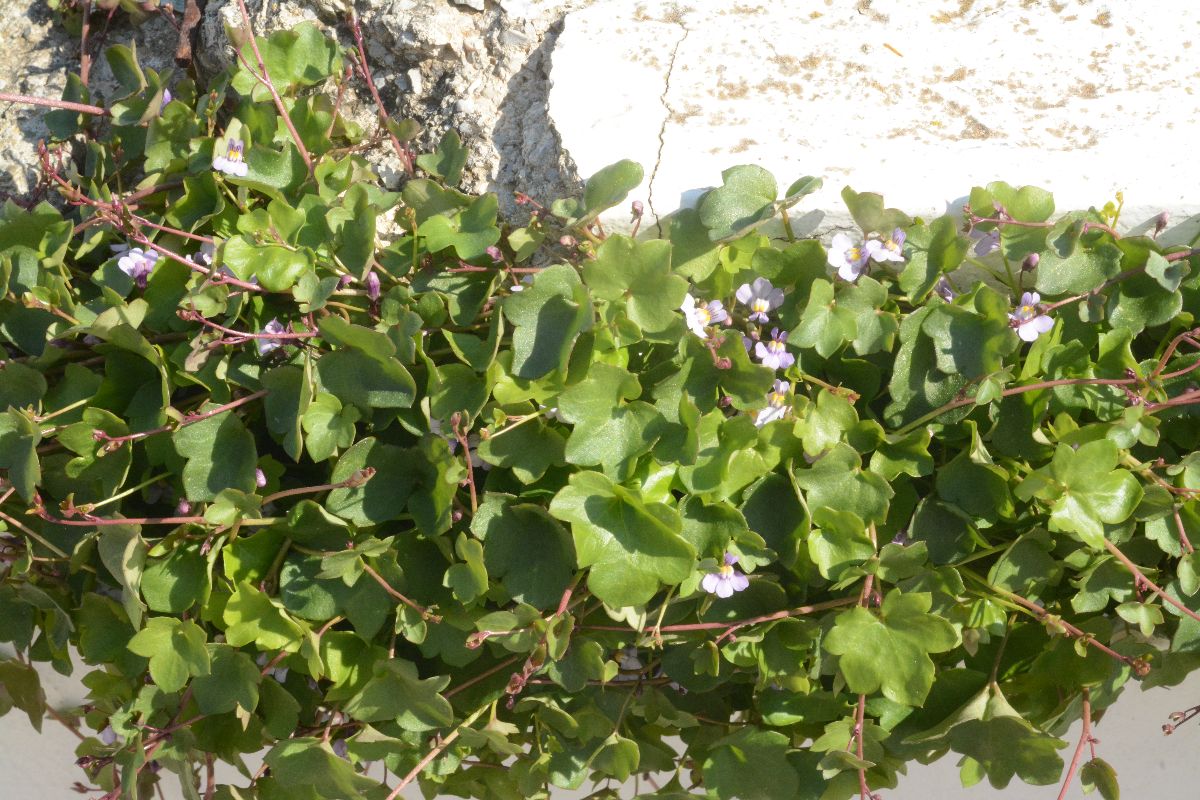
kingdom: Plantae
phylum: Tracheophyta
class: Magnoliopsida
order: Lamiales
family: Plantaginaceae
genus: Cymbalaria
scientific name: Cymbalaria muralis
